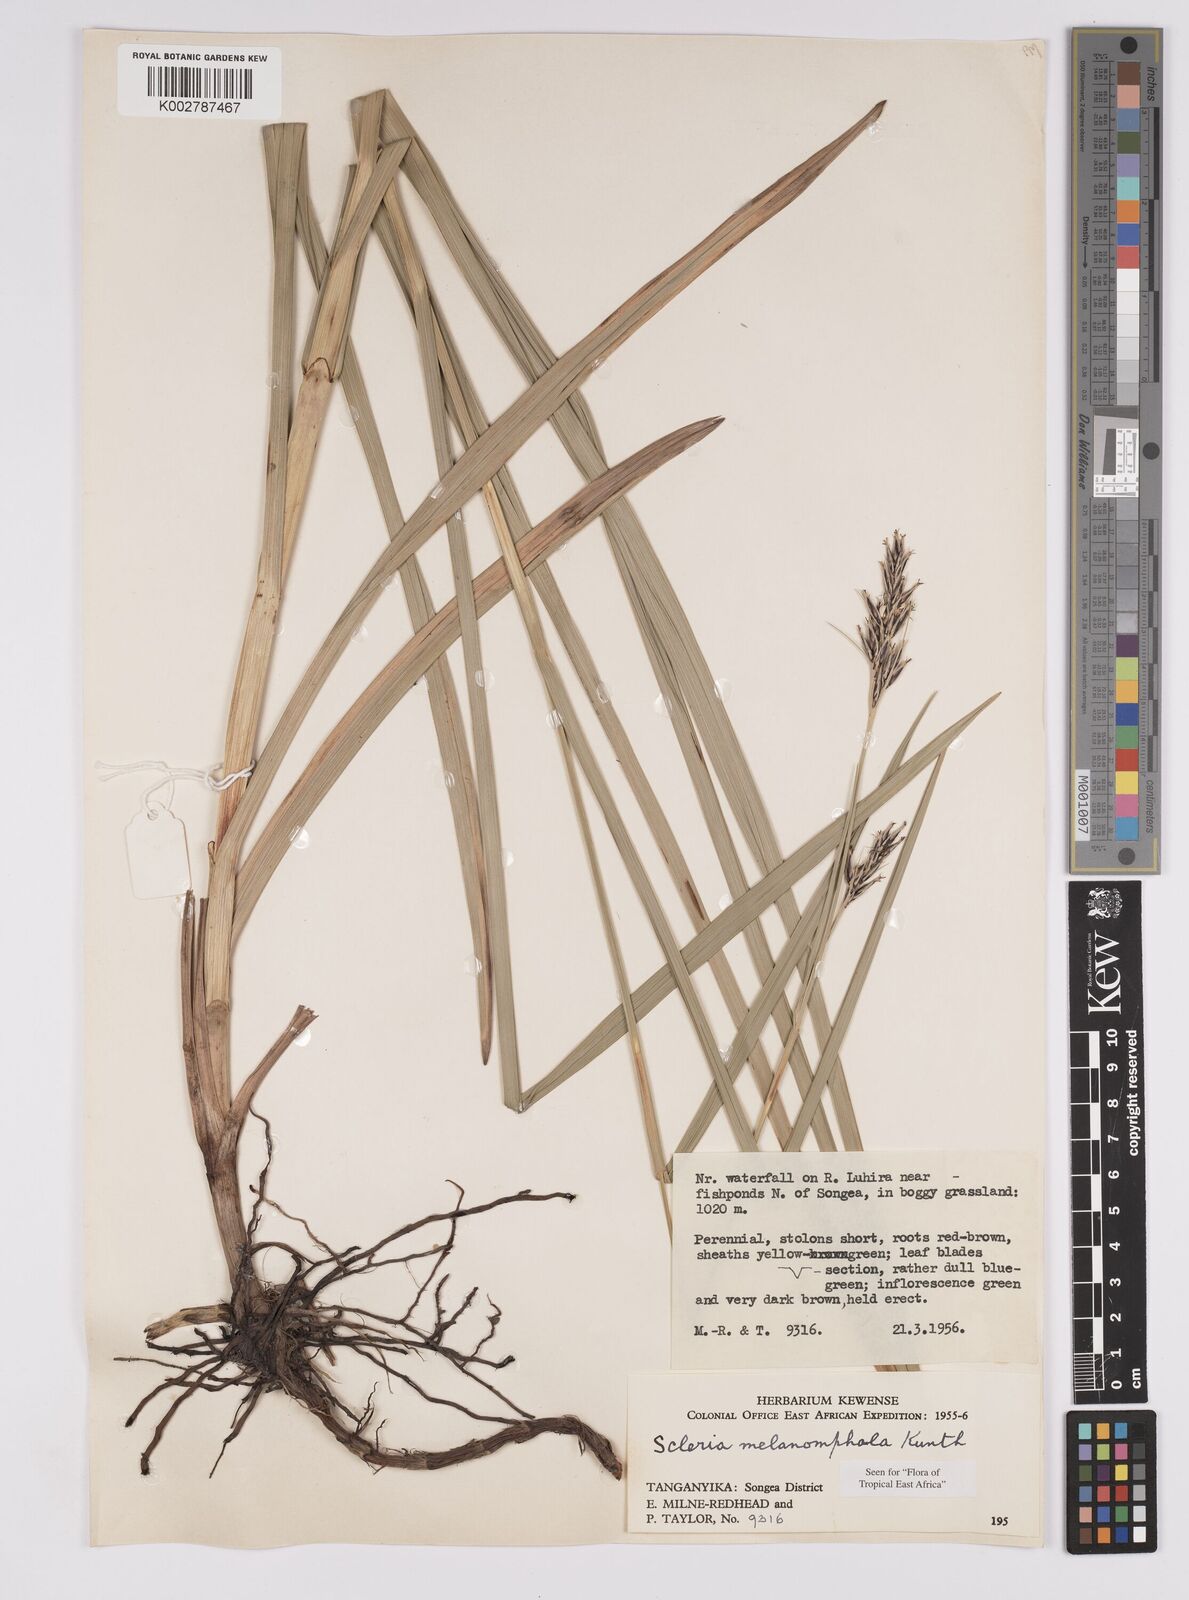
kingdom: Plantae
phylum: Tracheophyta
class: Liliopsida
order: Poales
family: Cyperaceae
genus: Scleria
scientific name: Scleria melanomphala
